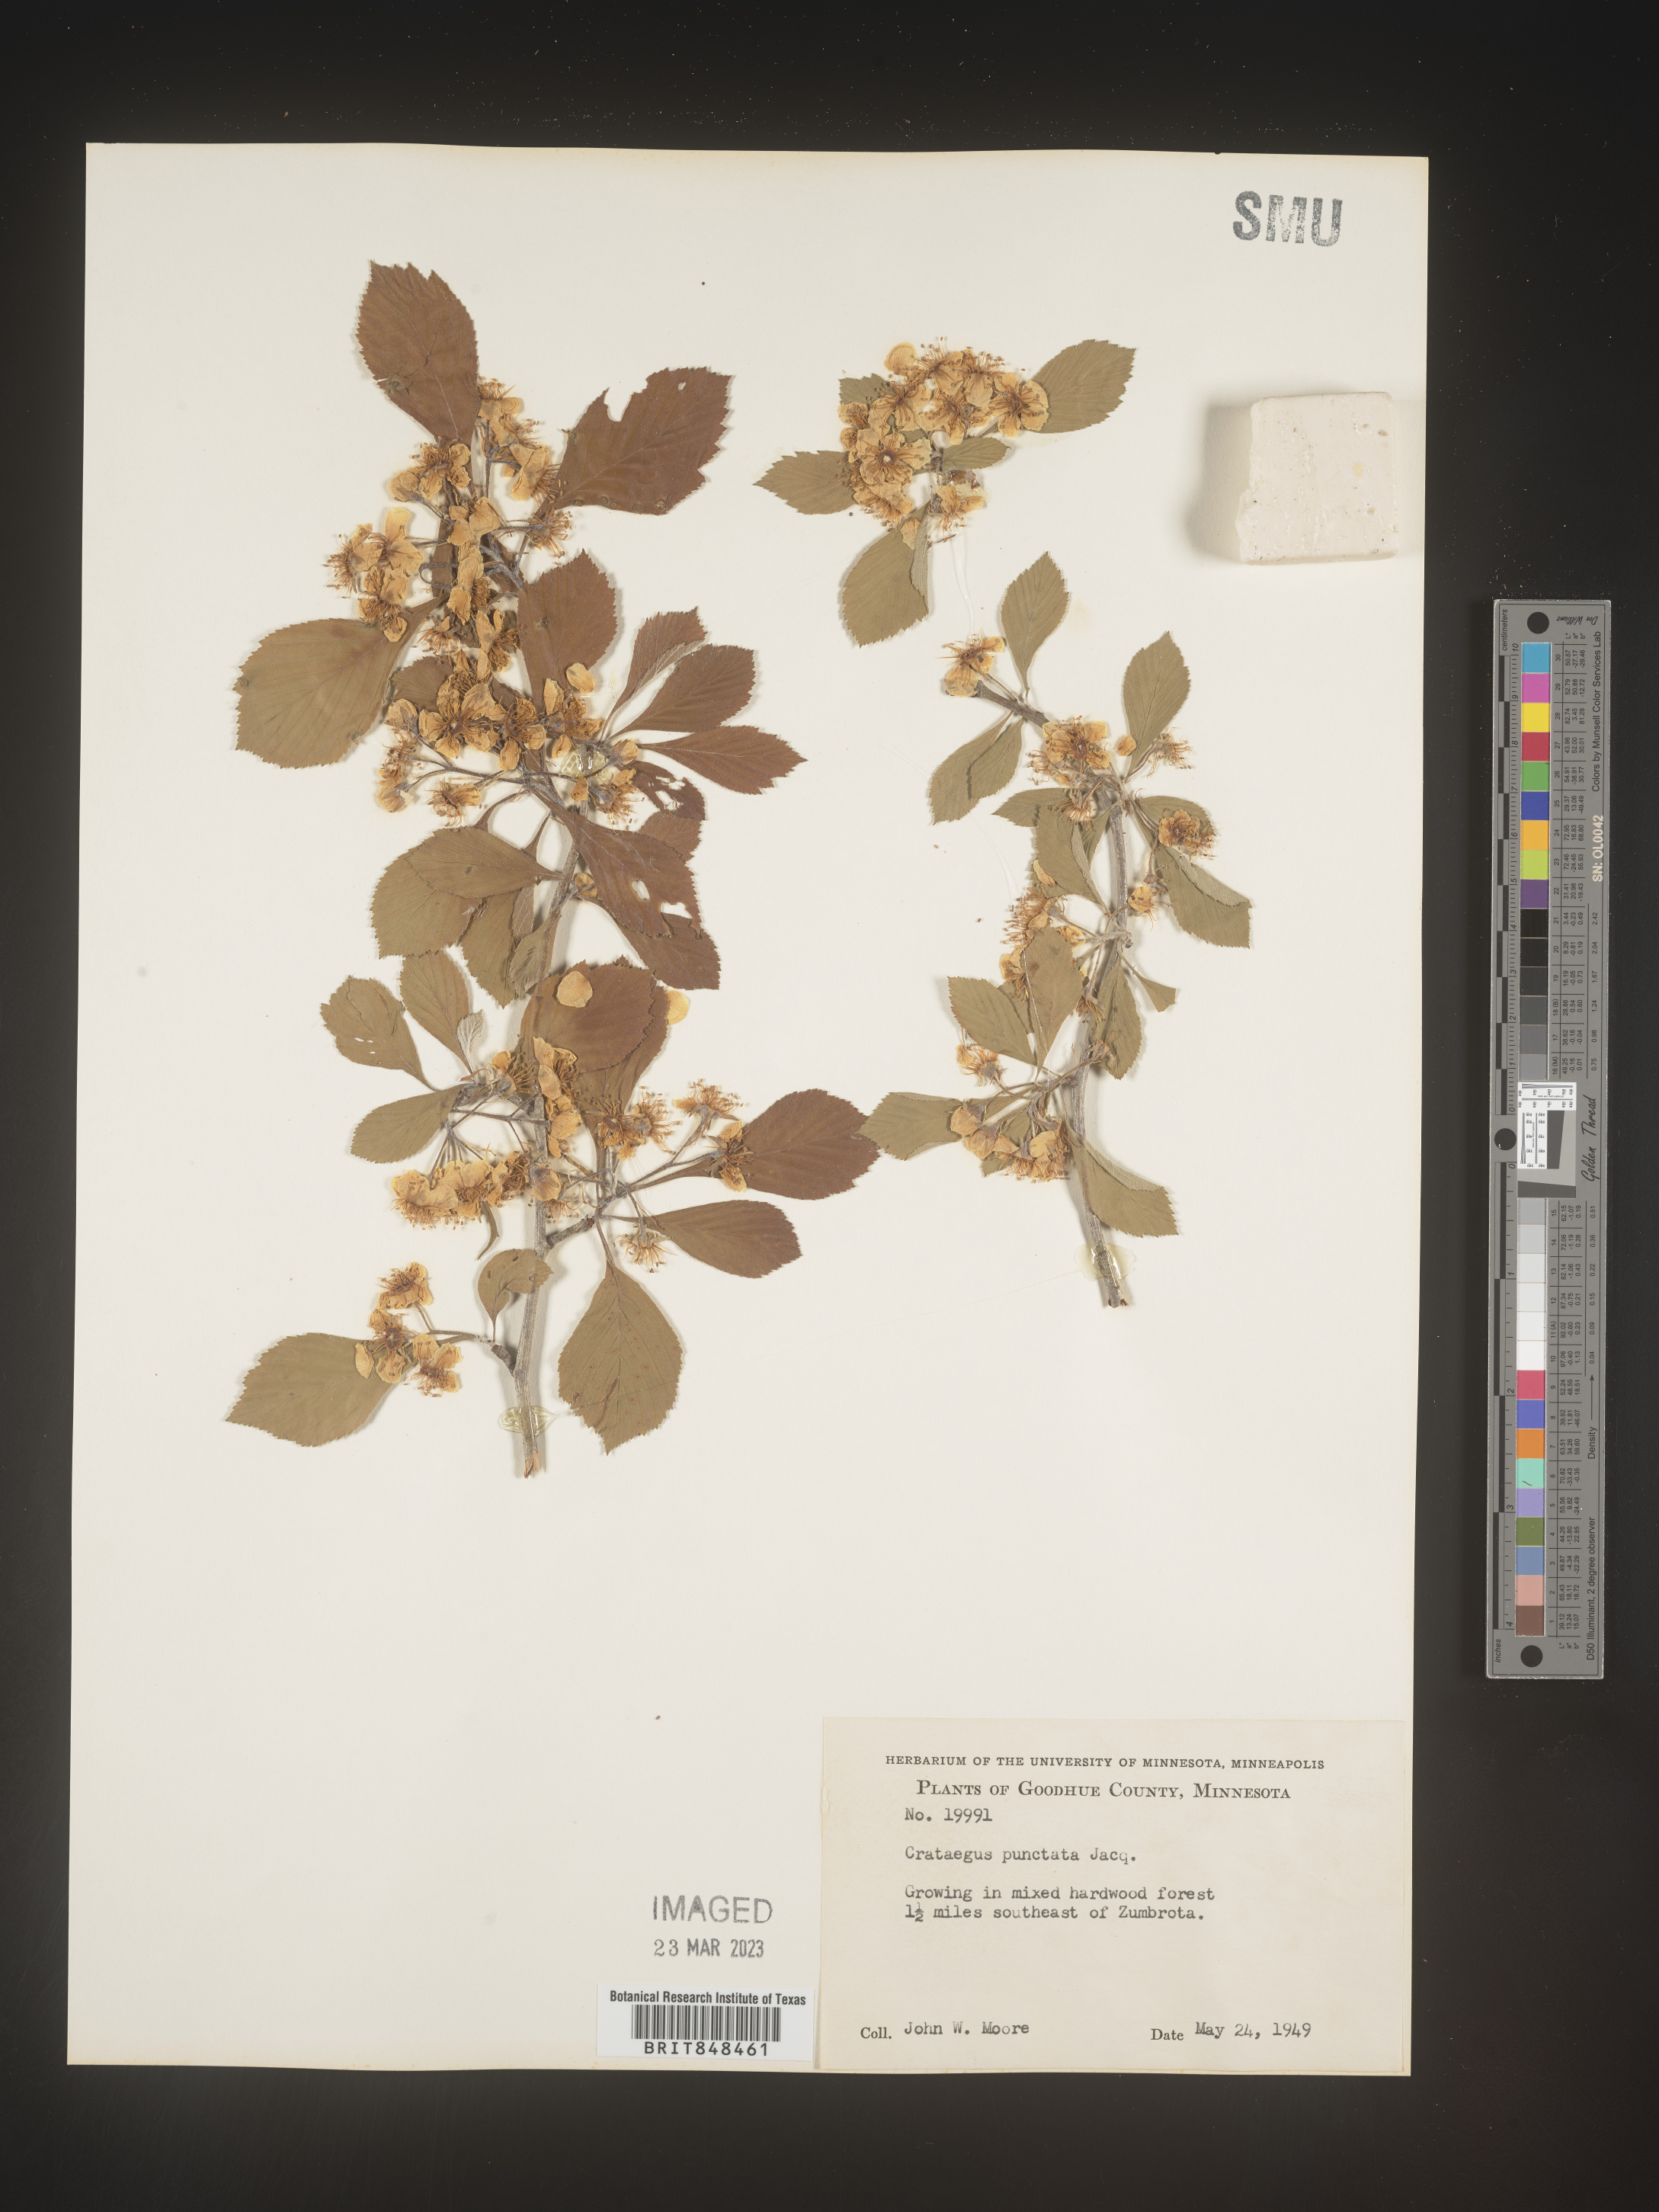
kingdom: Plantae
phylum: Tracheophyta
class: Magnoliopsida
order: Rosales
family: Rosaceae
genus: Crataegus
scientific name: Crataegus punctata
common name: Dotted hawthorn
